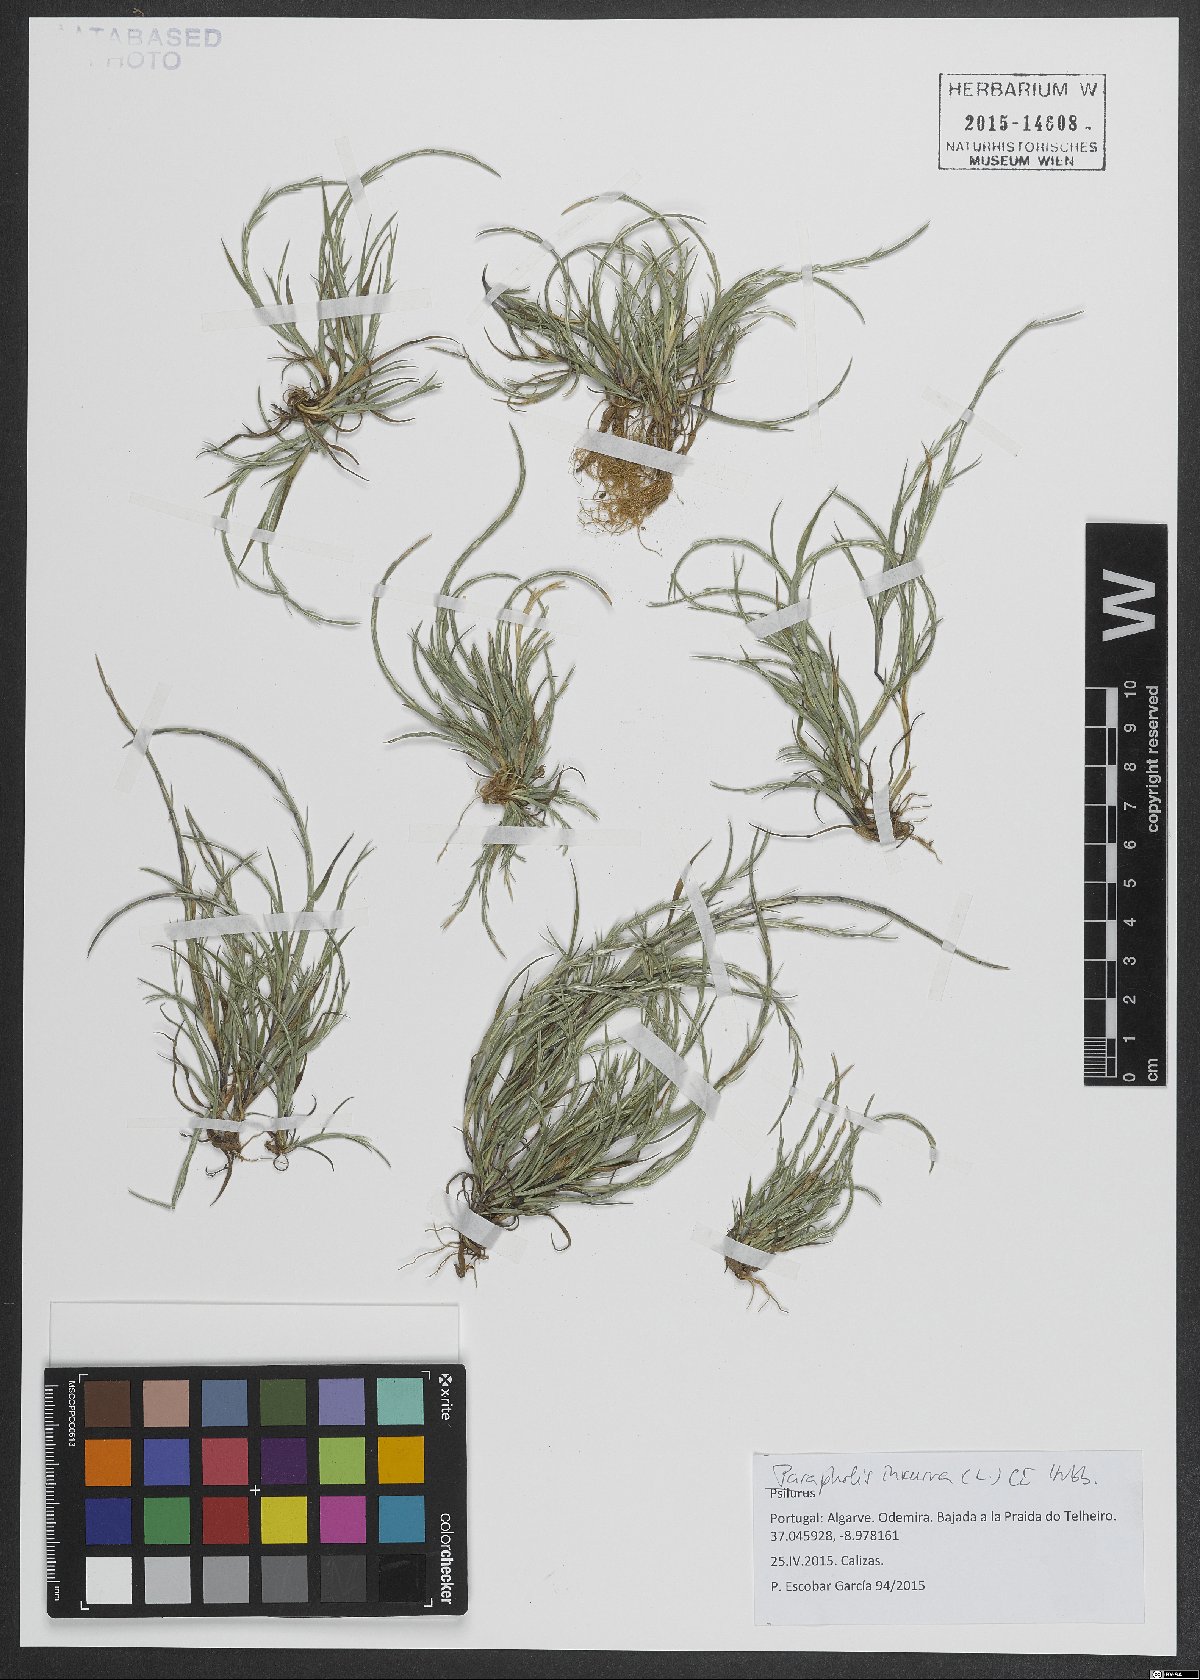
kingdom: Plantae
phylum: Tracheophyta
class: Liliopsida
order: Poales
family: Poaceae
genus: Parapholis
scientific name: Parapholis incurva
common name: Curved sicklegrass
